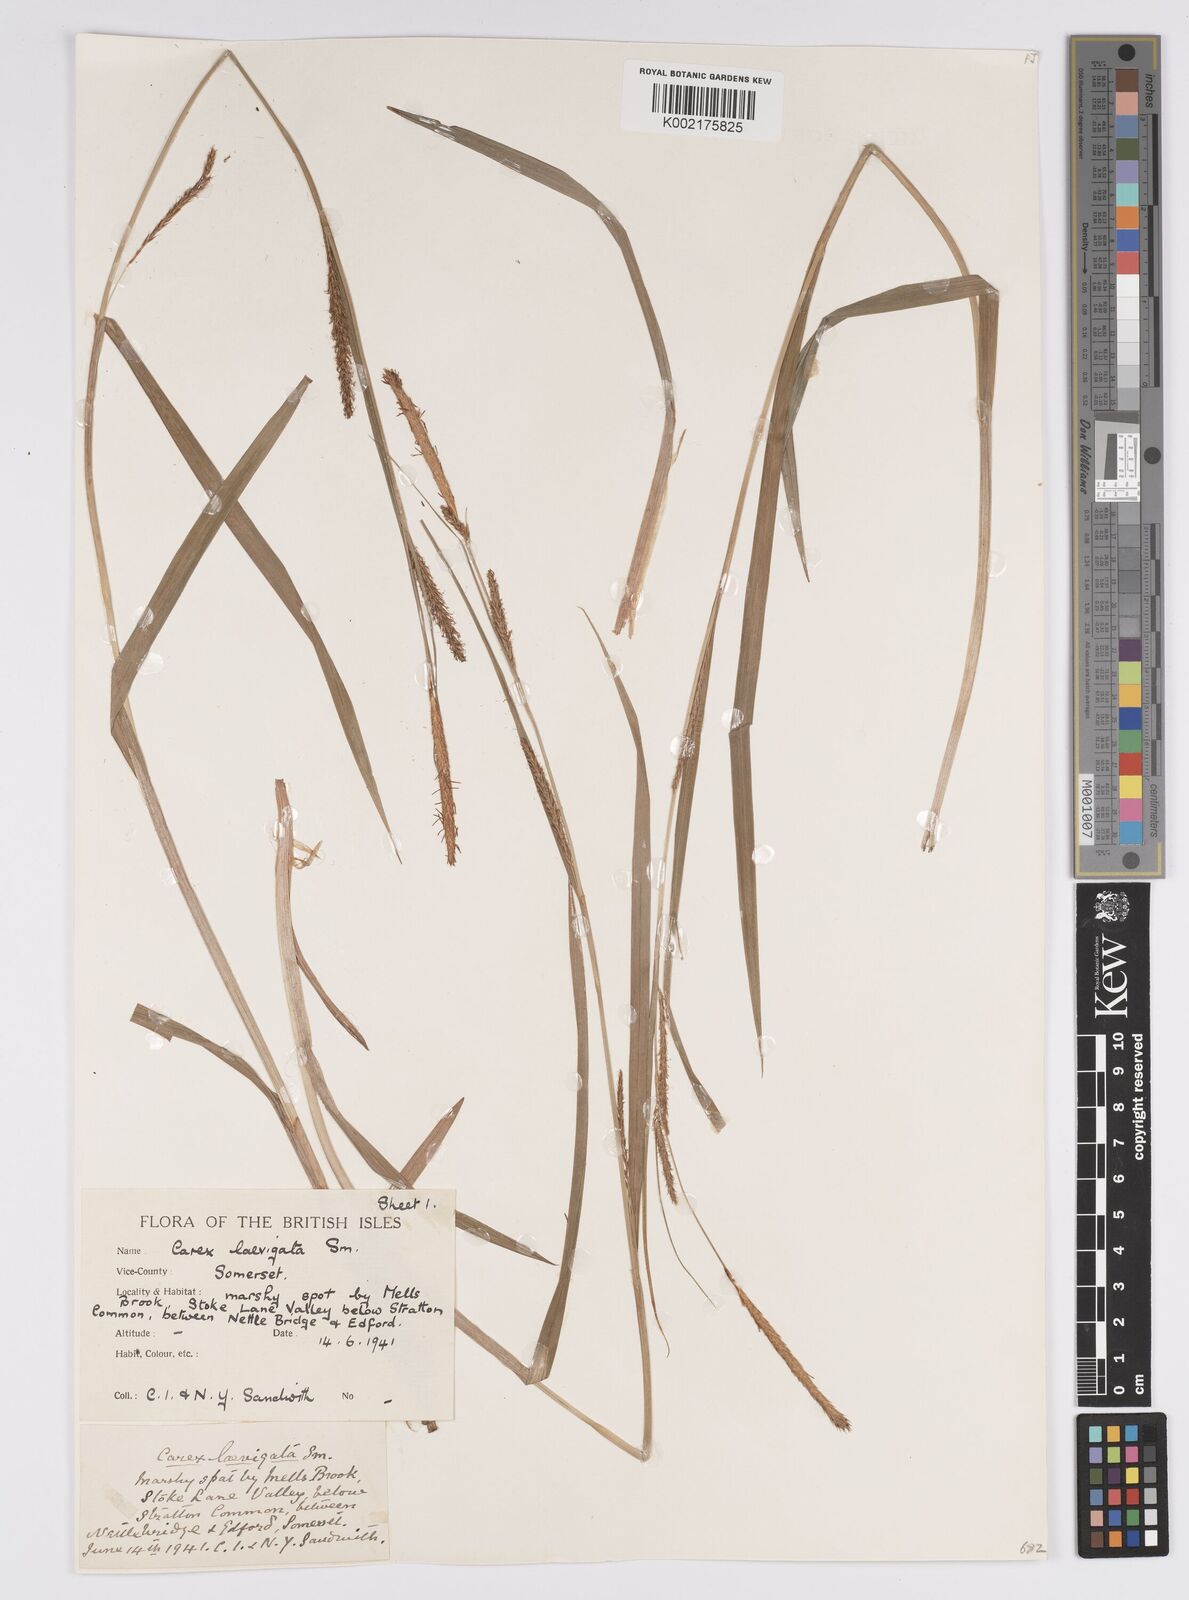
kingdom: Plantae
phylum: Tracheophyta
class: Liliopsida
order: Poales
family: Cyperaceae
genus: Carex
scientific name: Carex laevigata
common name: Smooth-stalked sedge
